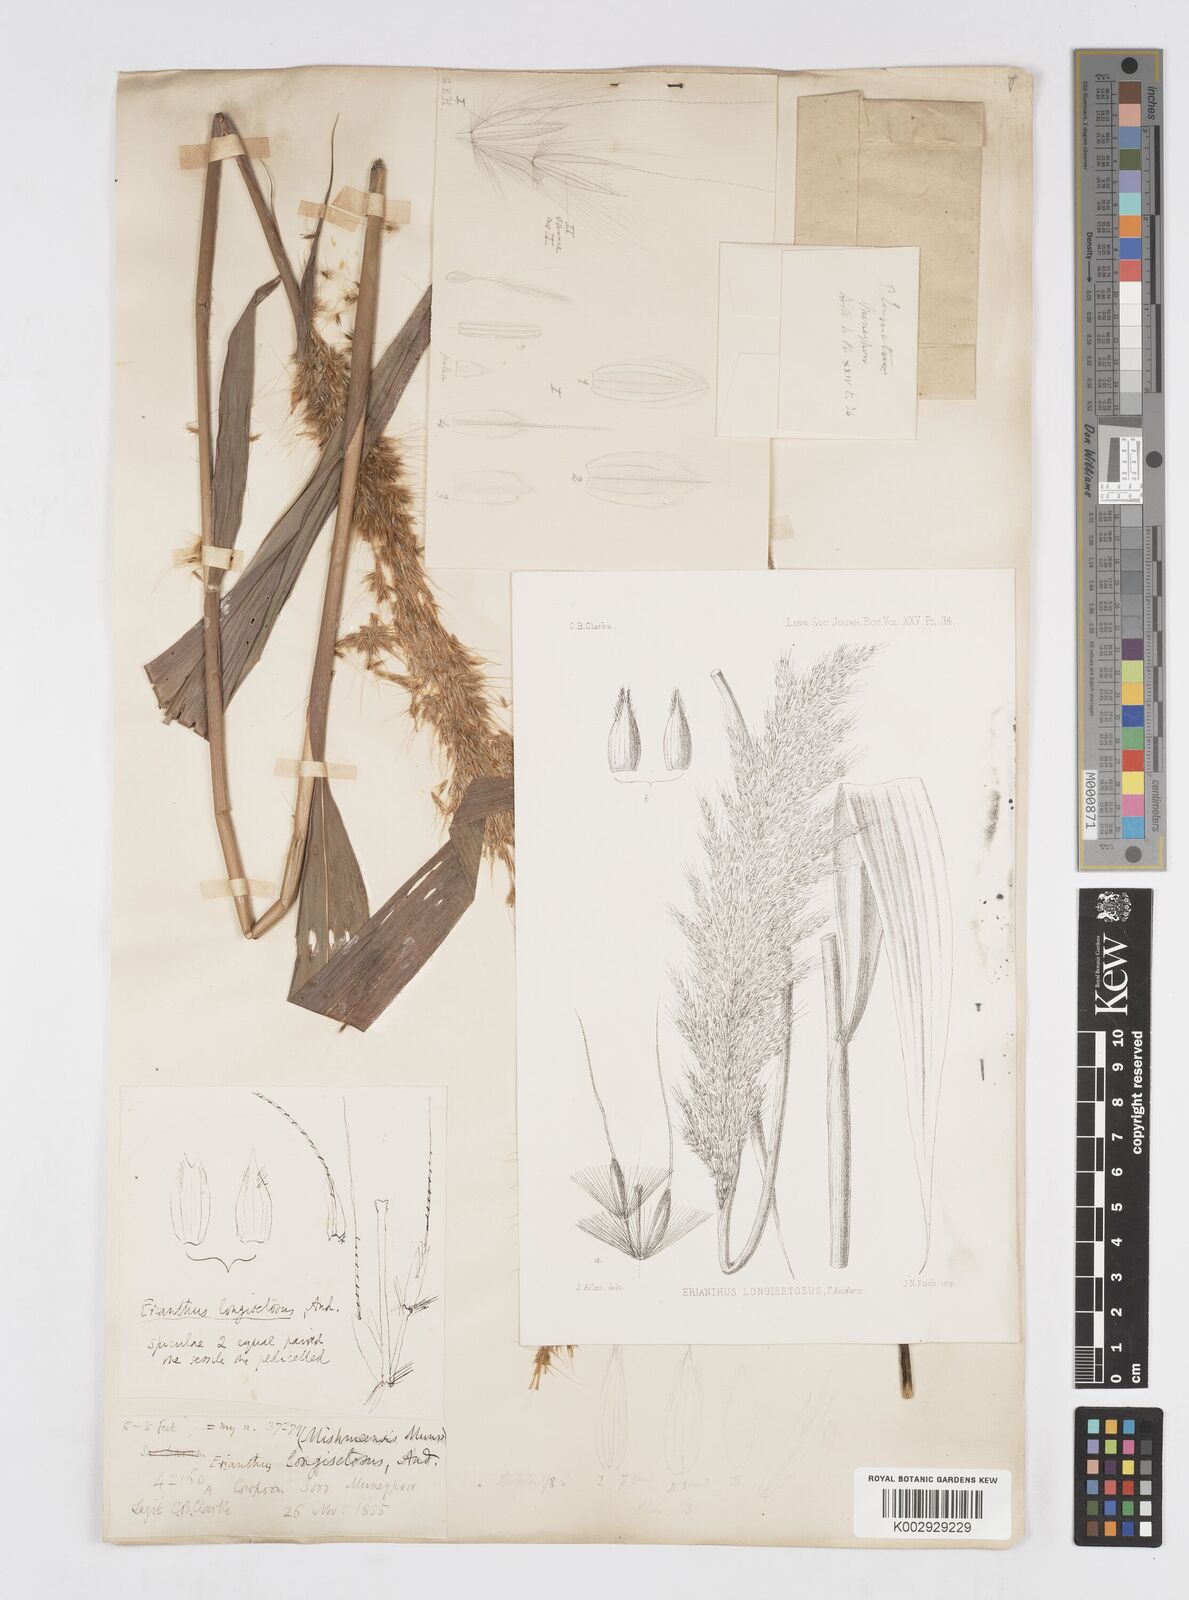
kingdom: Plantae
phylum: Tracheophyta
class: Liliopsida
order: Poales
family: Poaceae
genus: Melinis
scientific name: Melinis longiseta
